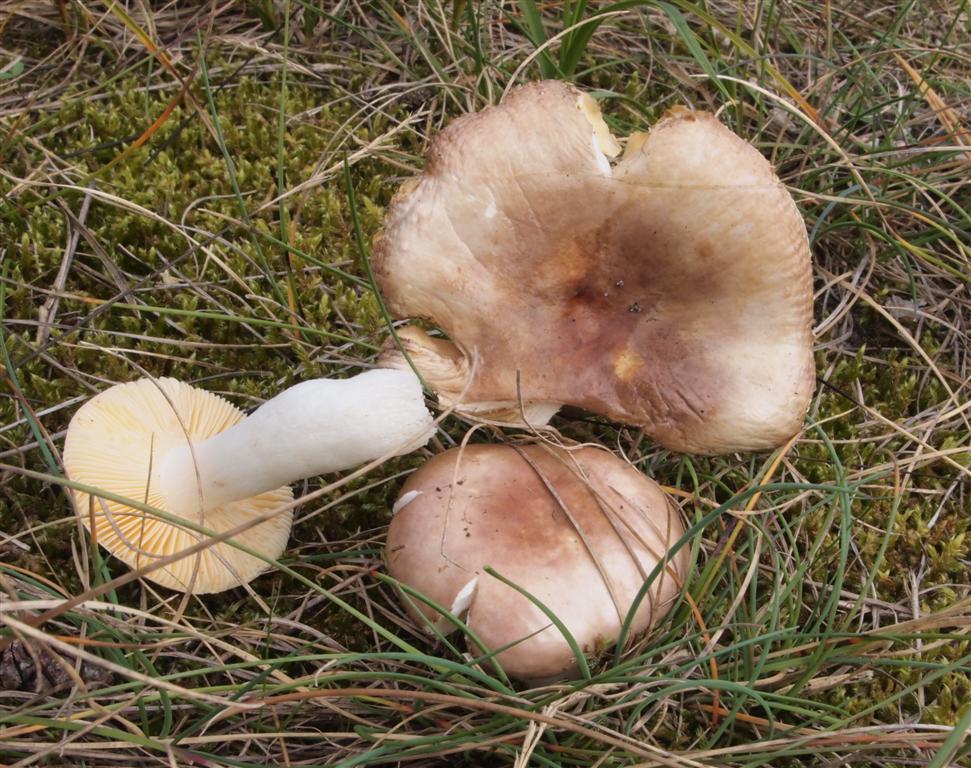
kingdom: Fungi
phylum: Basidiomycota
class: Agaricomycetes
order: Russulales
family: Russulaceae
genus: Russula
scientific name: Russula cessans
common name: fyrre-skørhat
